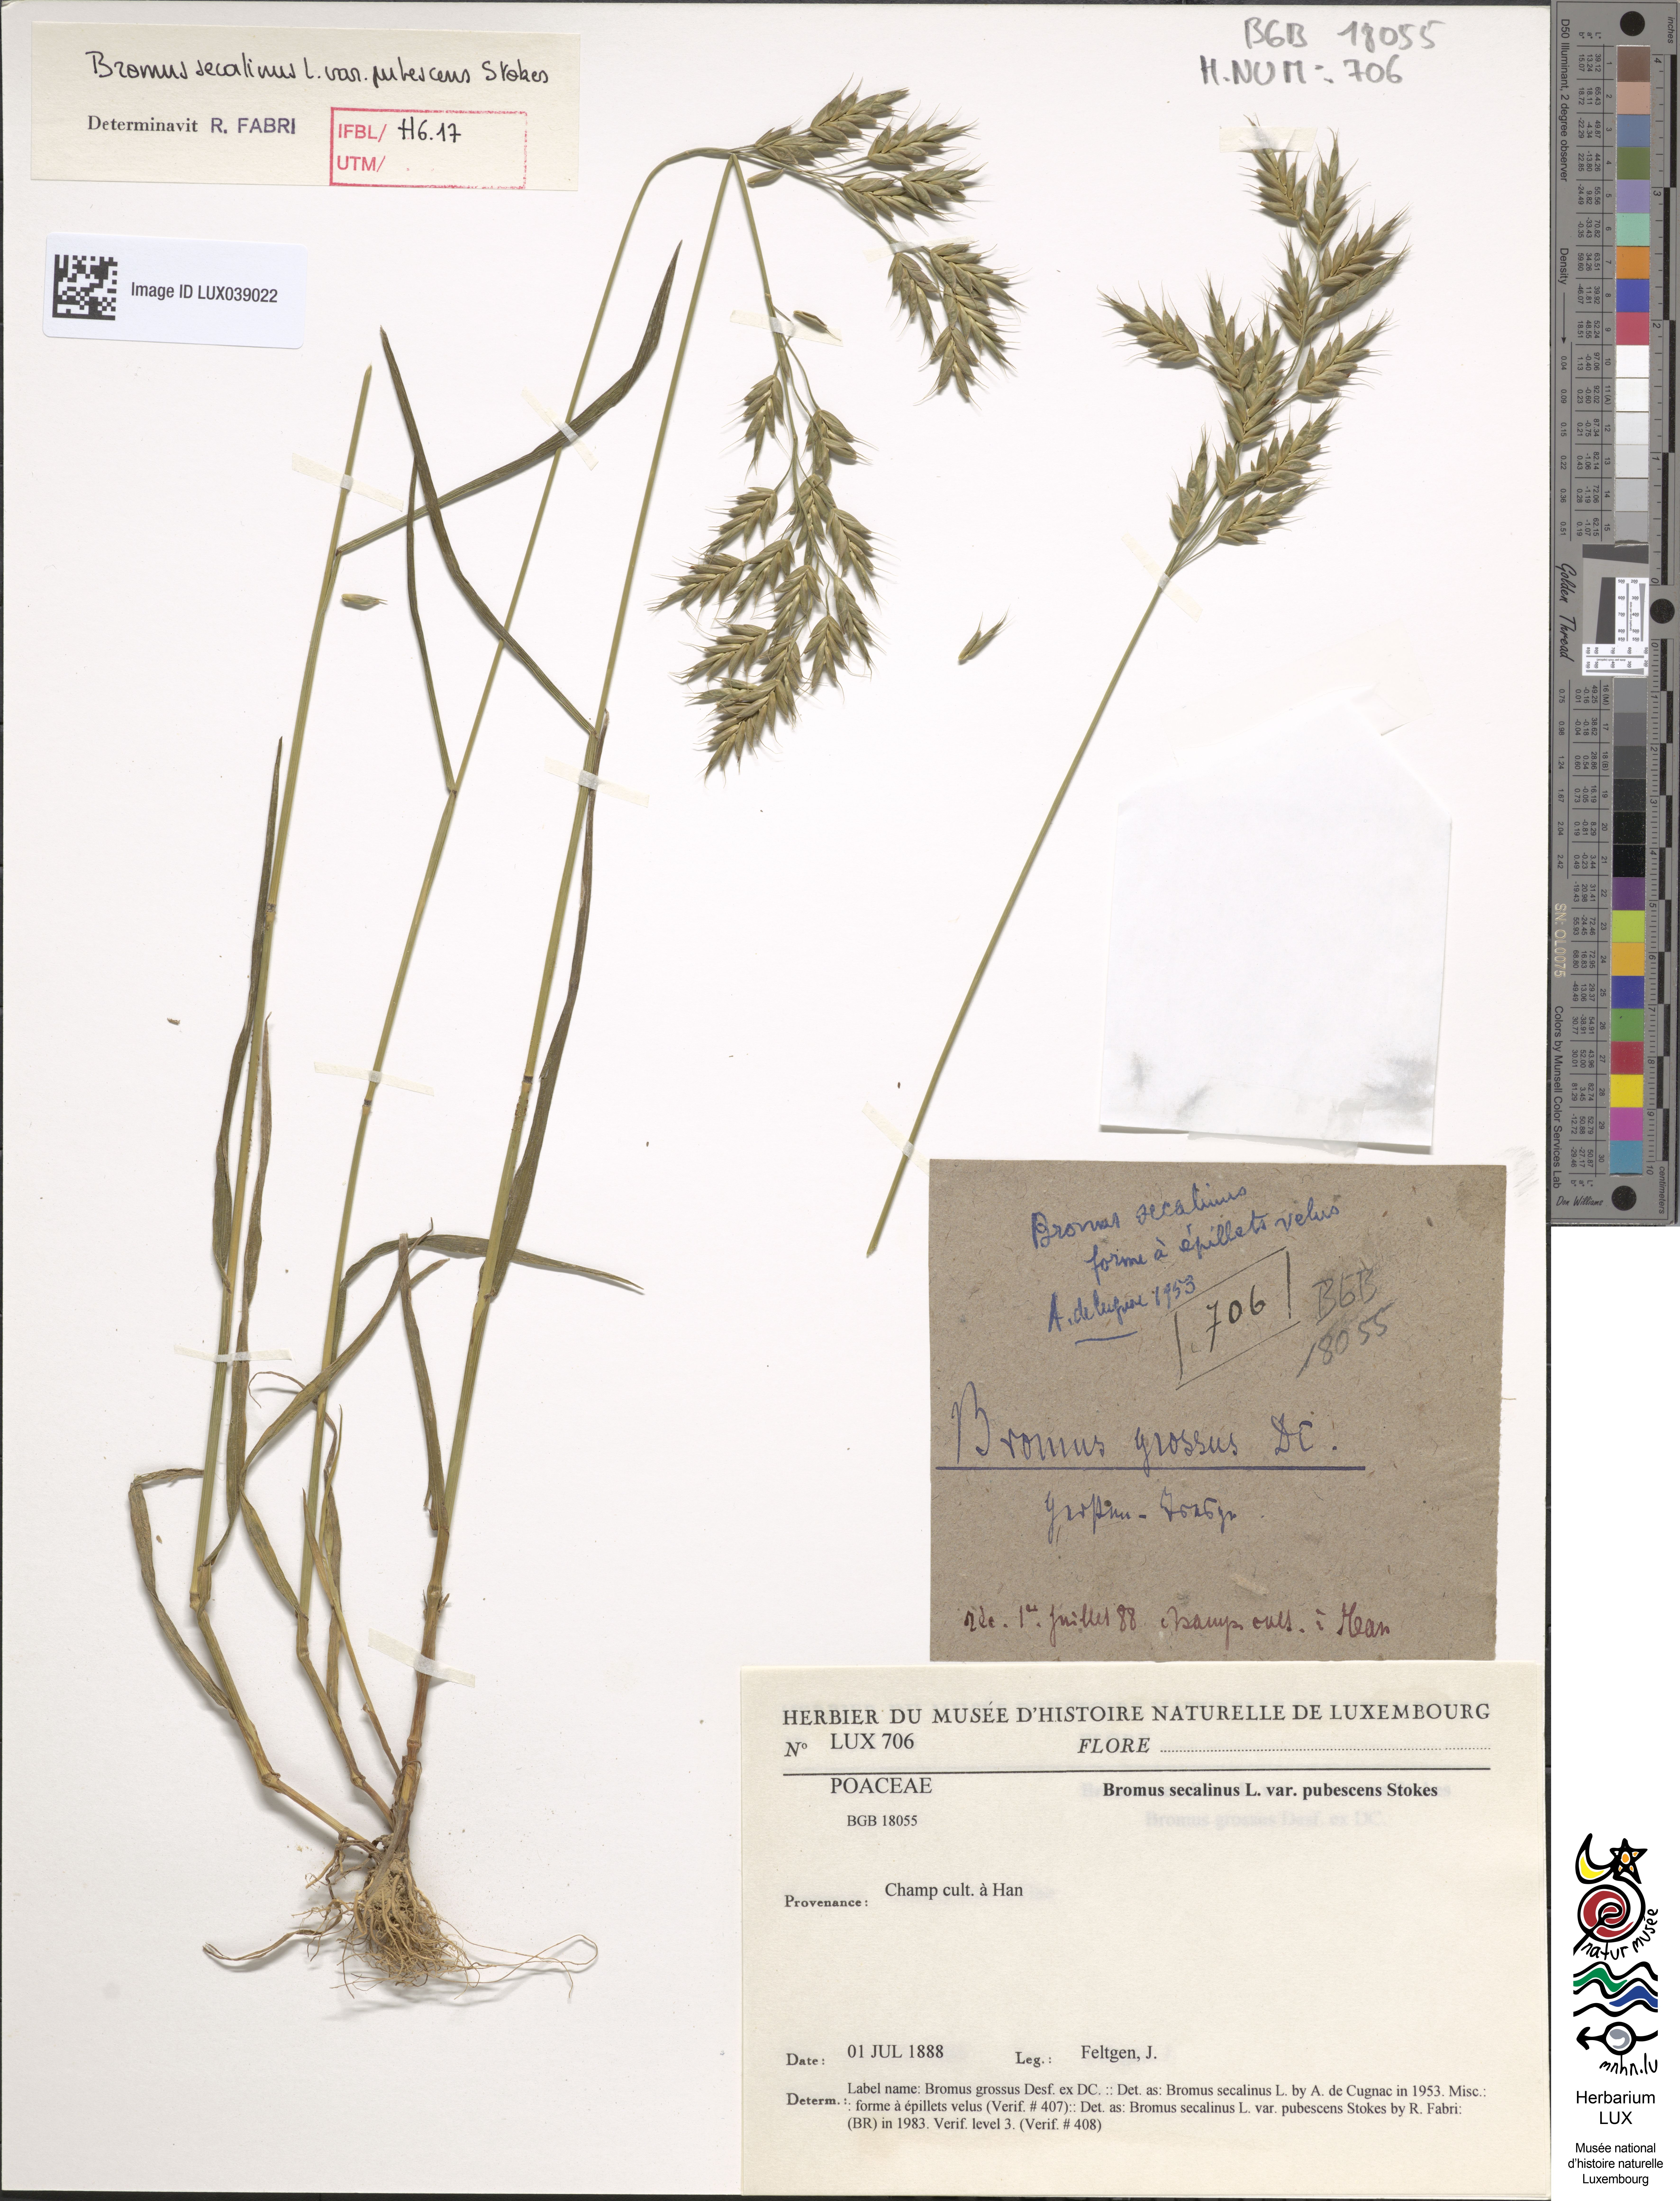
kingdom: Plantae
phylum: Tracheophyta
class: Liliopsida
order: Poales
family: Poaceae
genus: Bromus
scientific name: Bromus secalinus
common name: Rye brome
